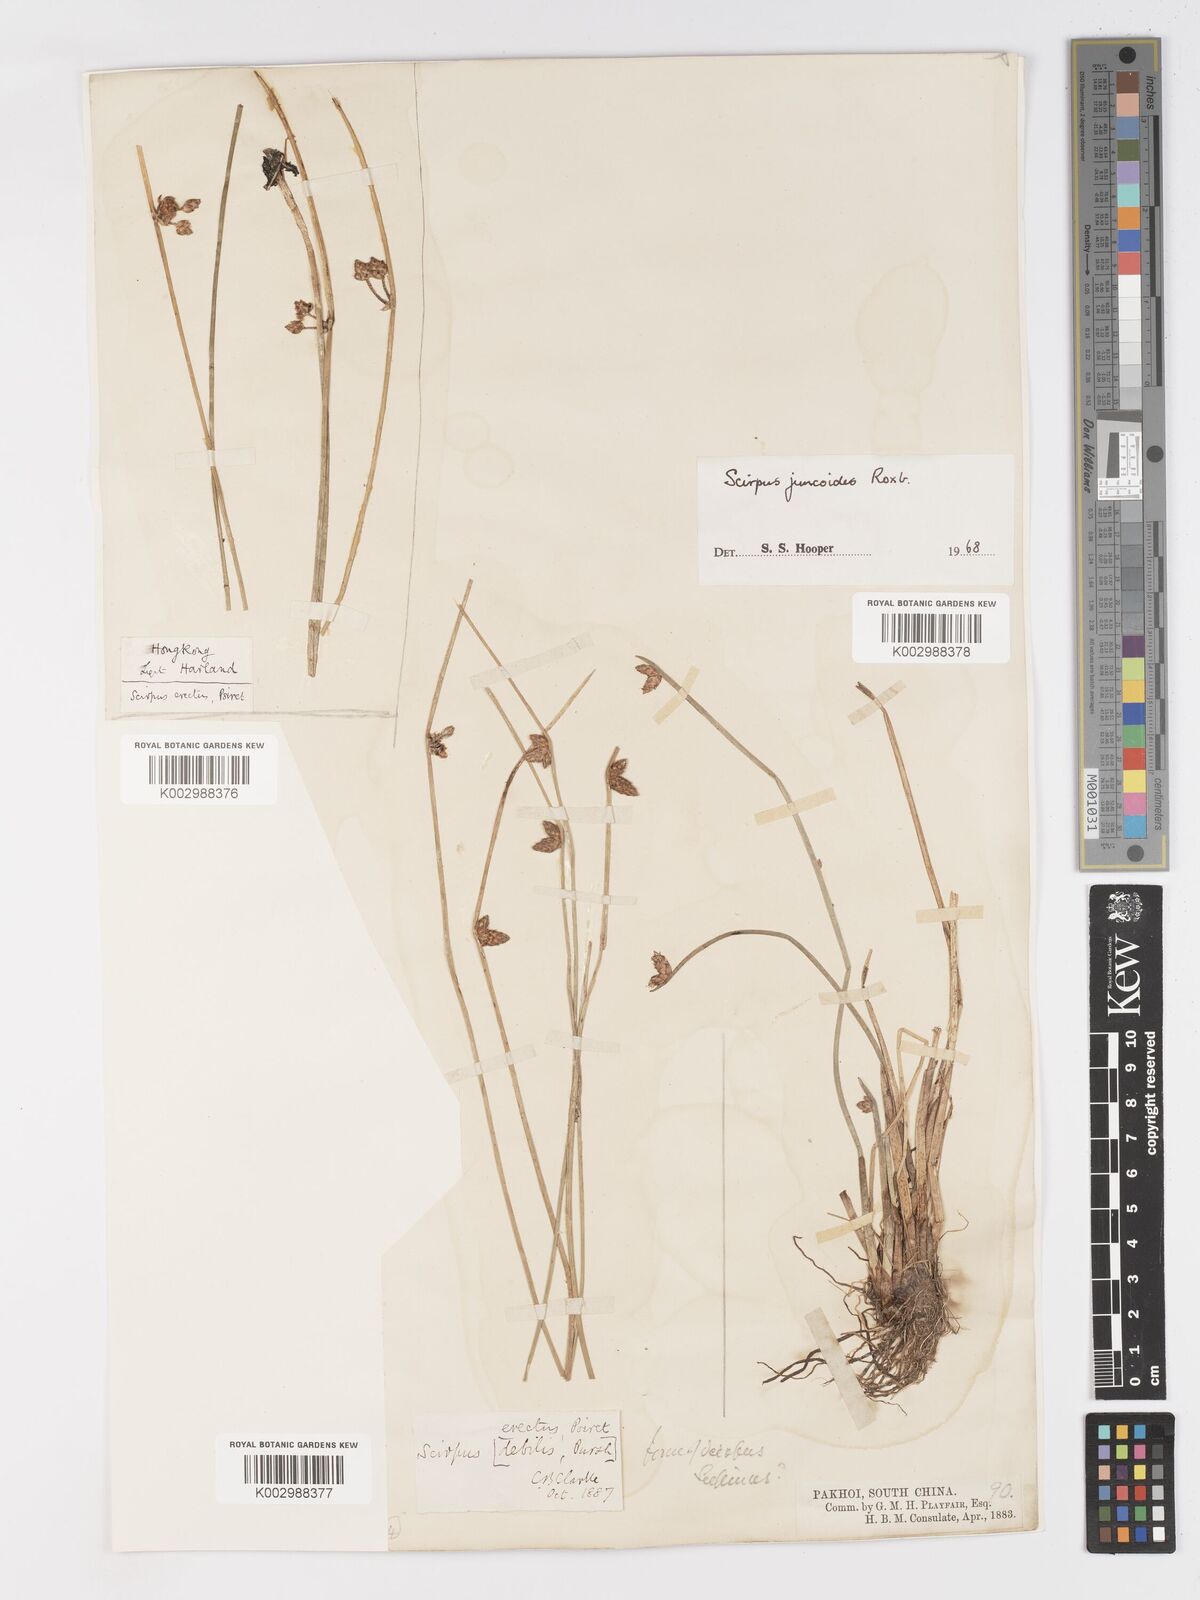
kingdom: Plantae
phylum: Tracheophyta
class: Liliopsida
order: Poales
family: Cyperaceae
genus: Schoenoplectiella
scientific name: Schoenoplectiella juncoides
